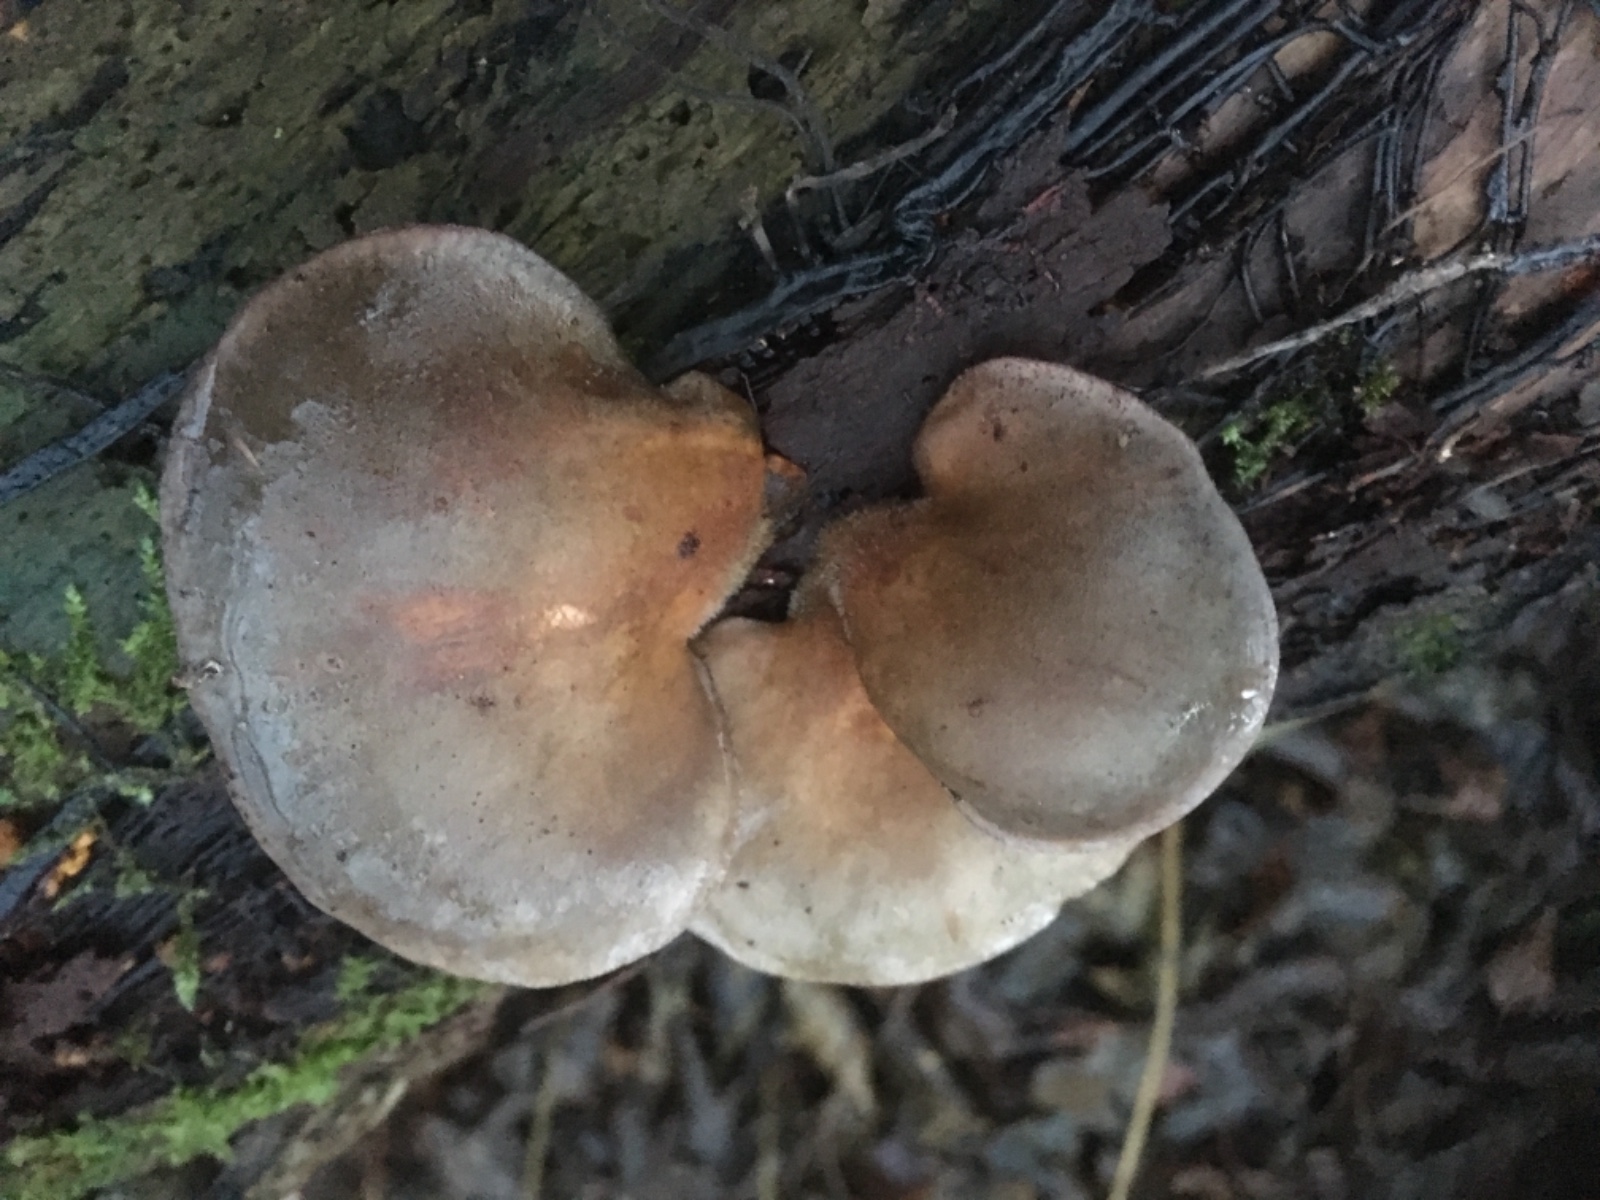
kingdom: Fungi
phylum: Basidiomycota
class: Agaricomycetes
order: Agaricales
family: Sarcomyxaceae
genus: Sarcomyxa
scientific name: Sarcomyxa serotina
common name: gummihat
